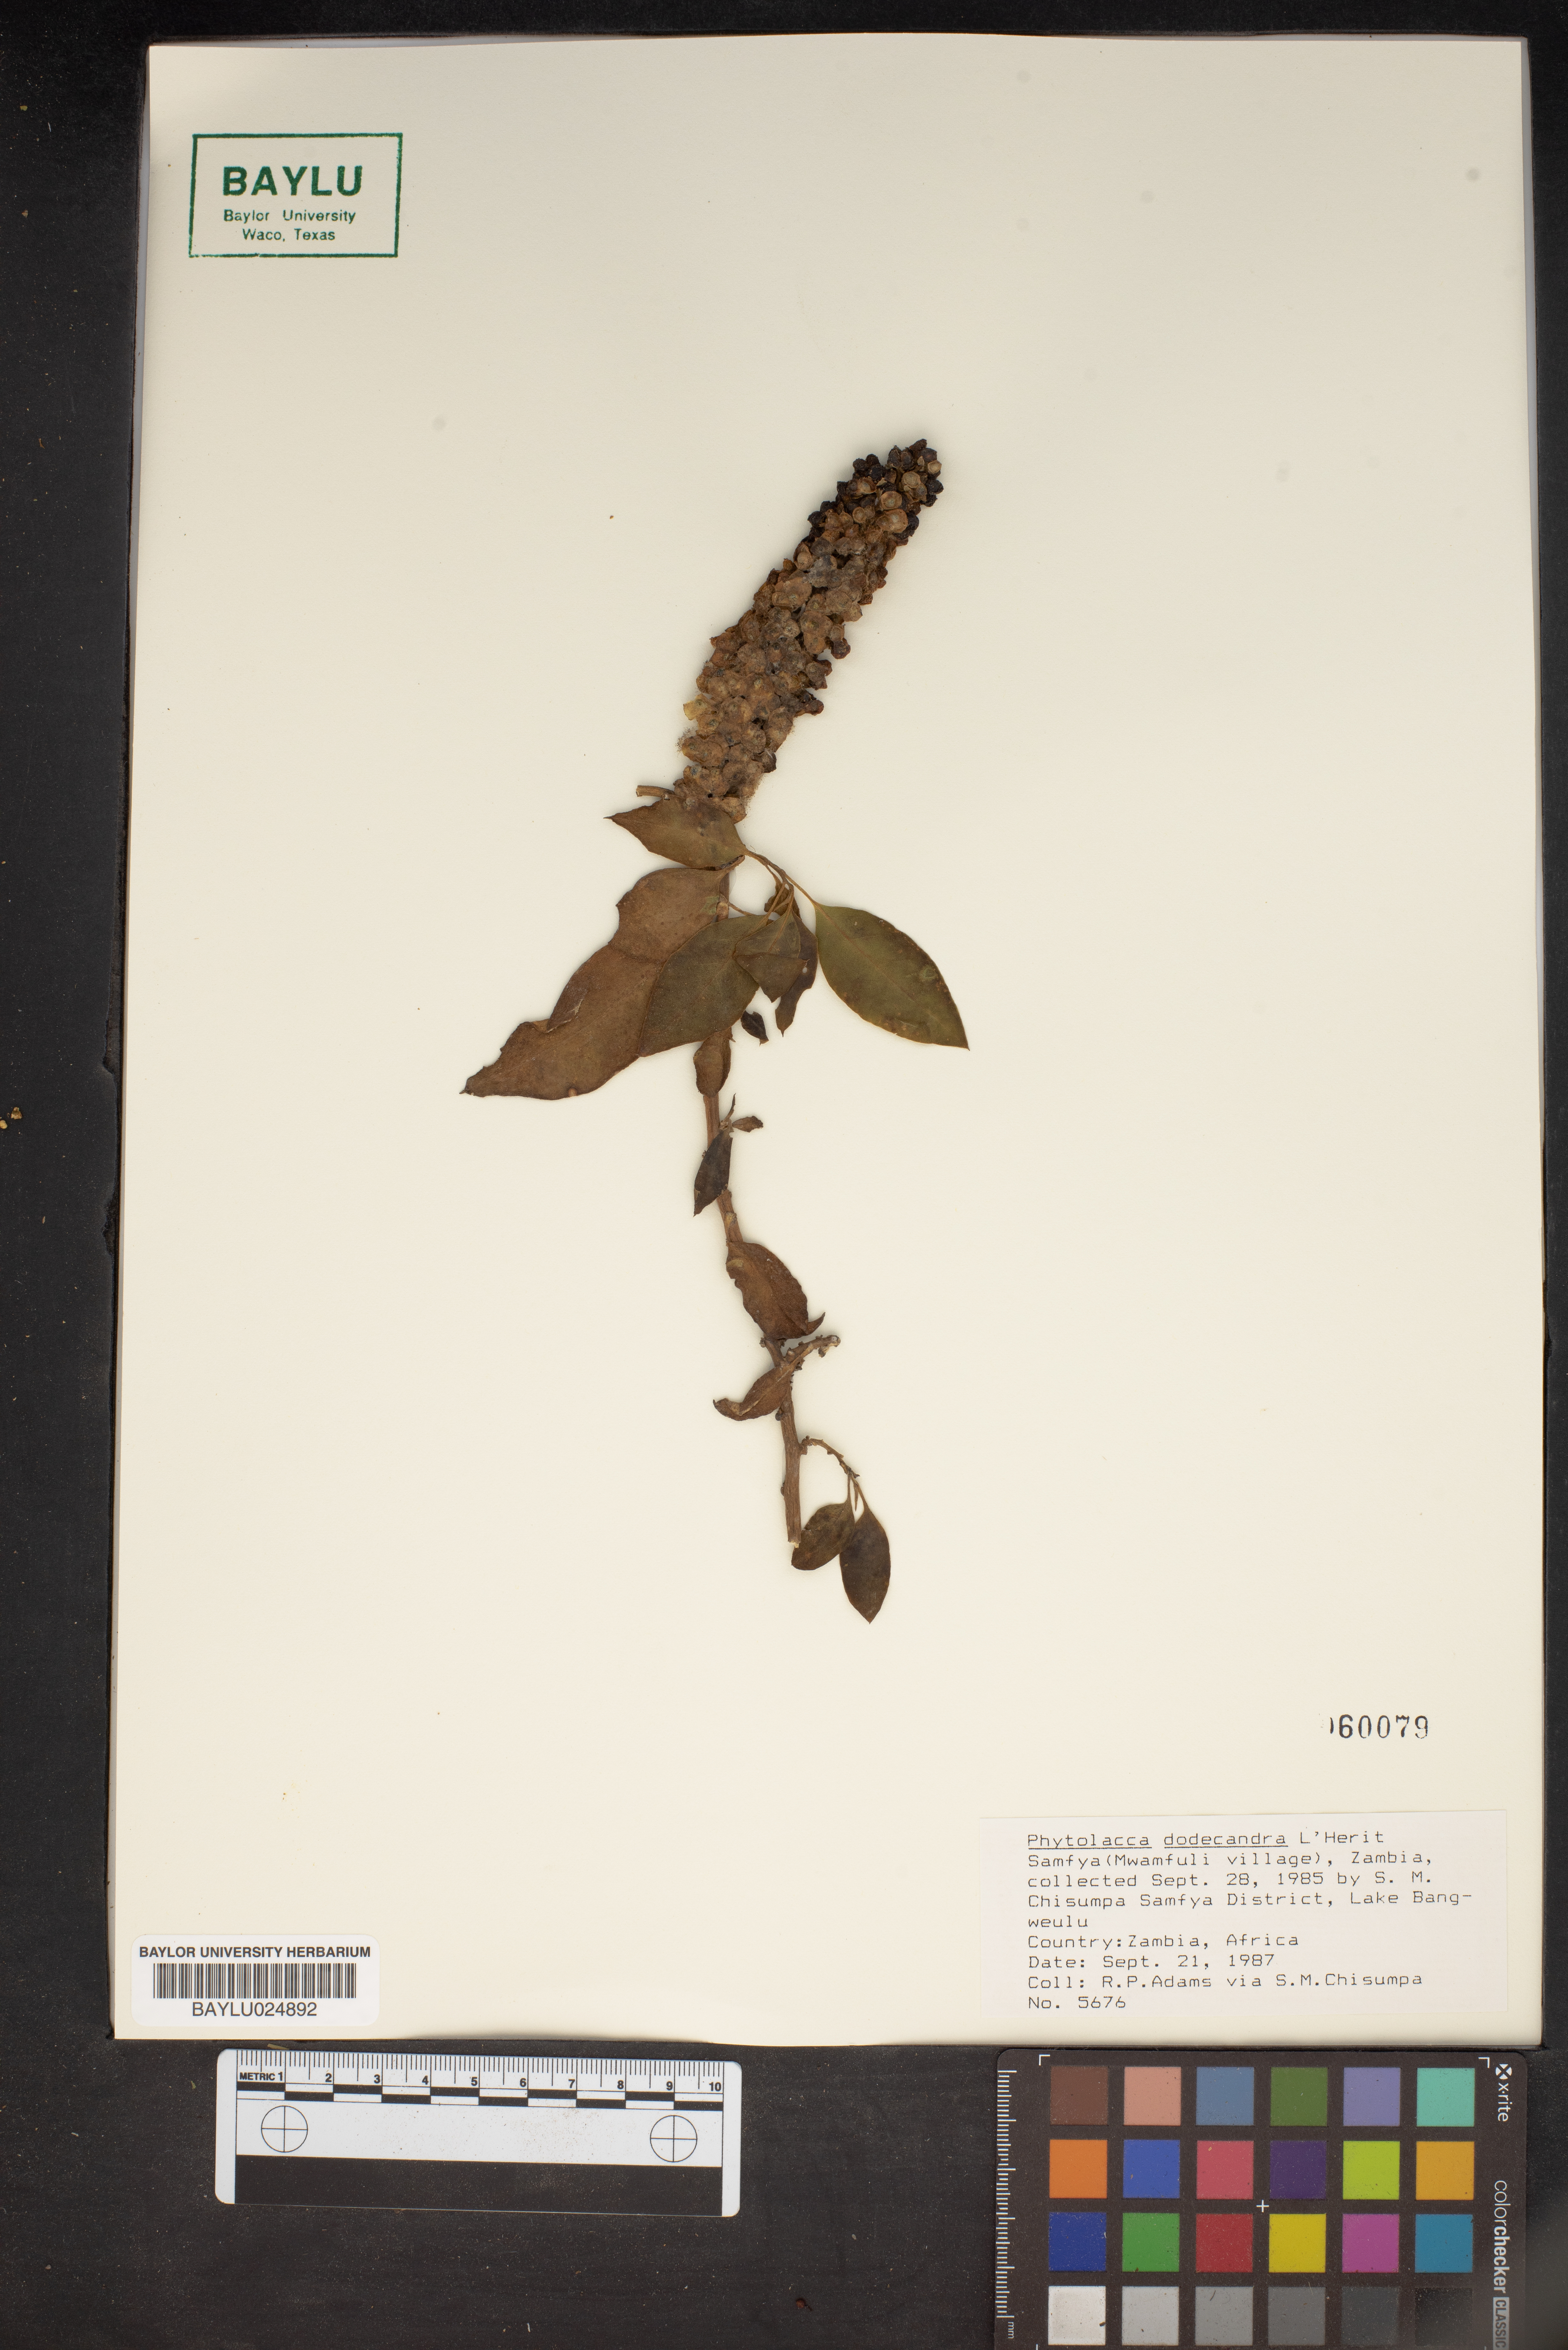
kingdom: Plantae
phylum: Tracheophyta
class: Magnoliopsida
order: Caryophyllales
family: Phytolaccaceae
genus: Phytolacca
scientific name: Phytolacca dodecandra
